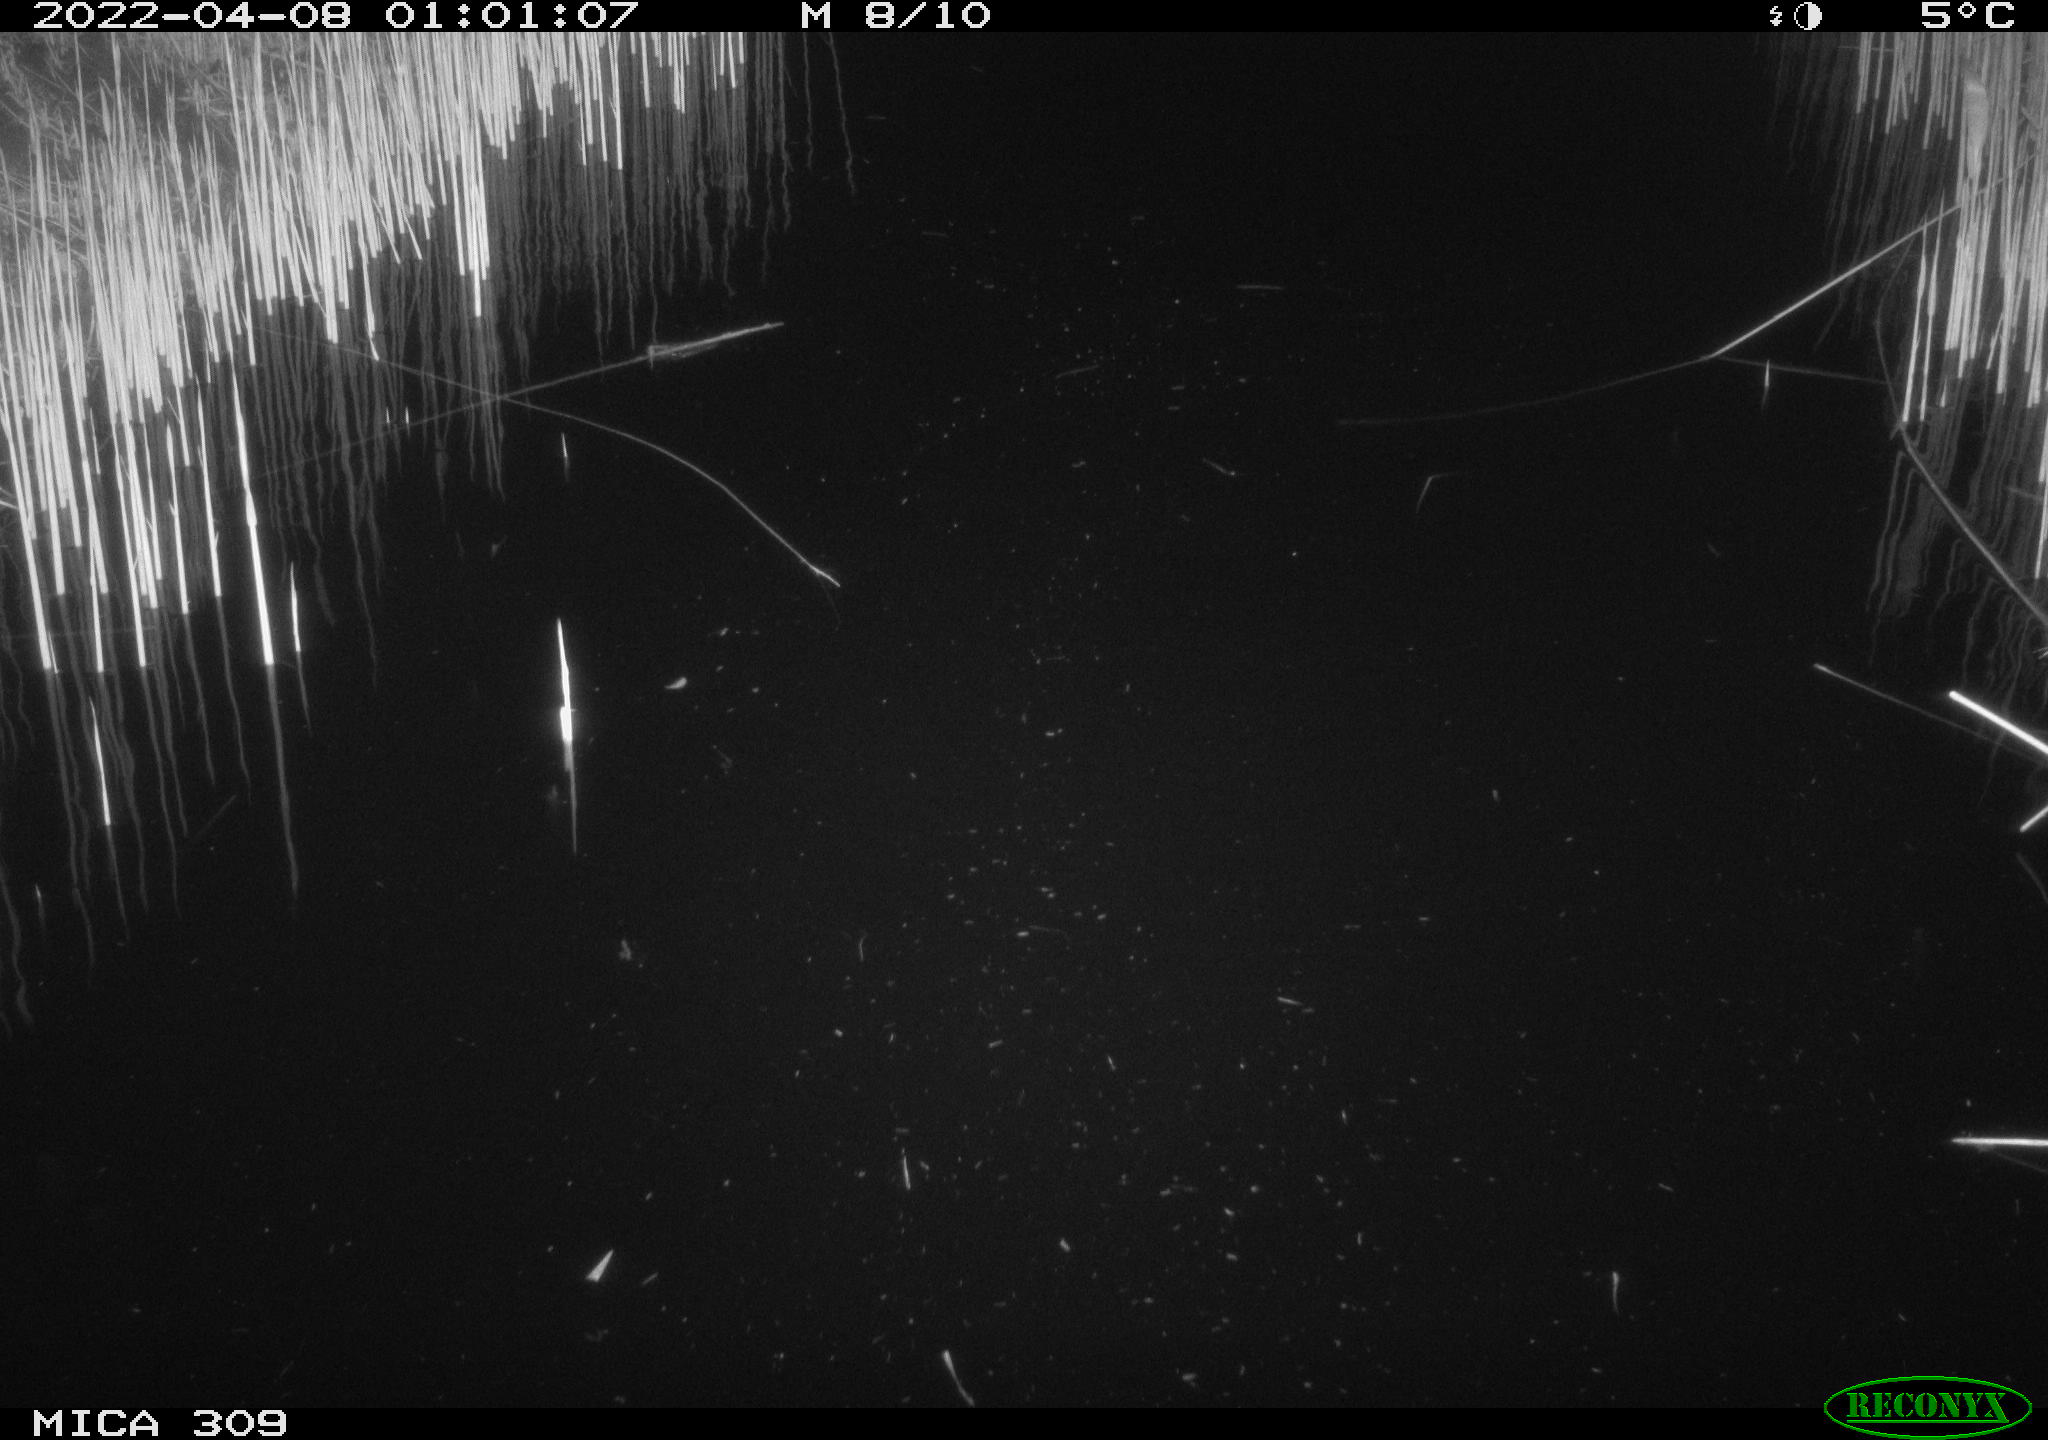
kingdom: Animalia
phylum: Chordata
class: Aves
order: Anseriformes
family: Anatidae
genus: Anas
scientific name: Anas platyrhynchos
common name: Mallard
